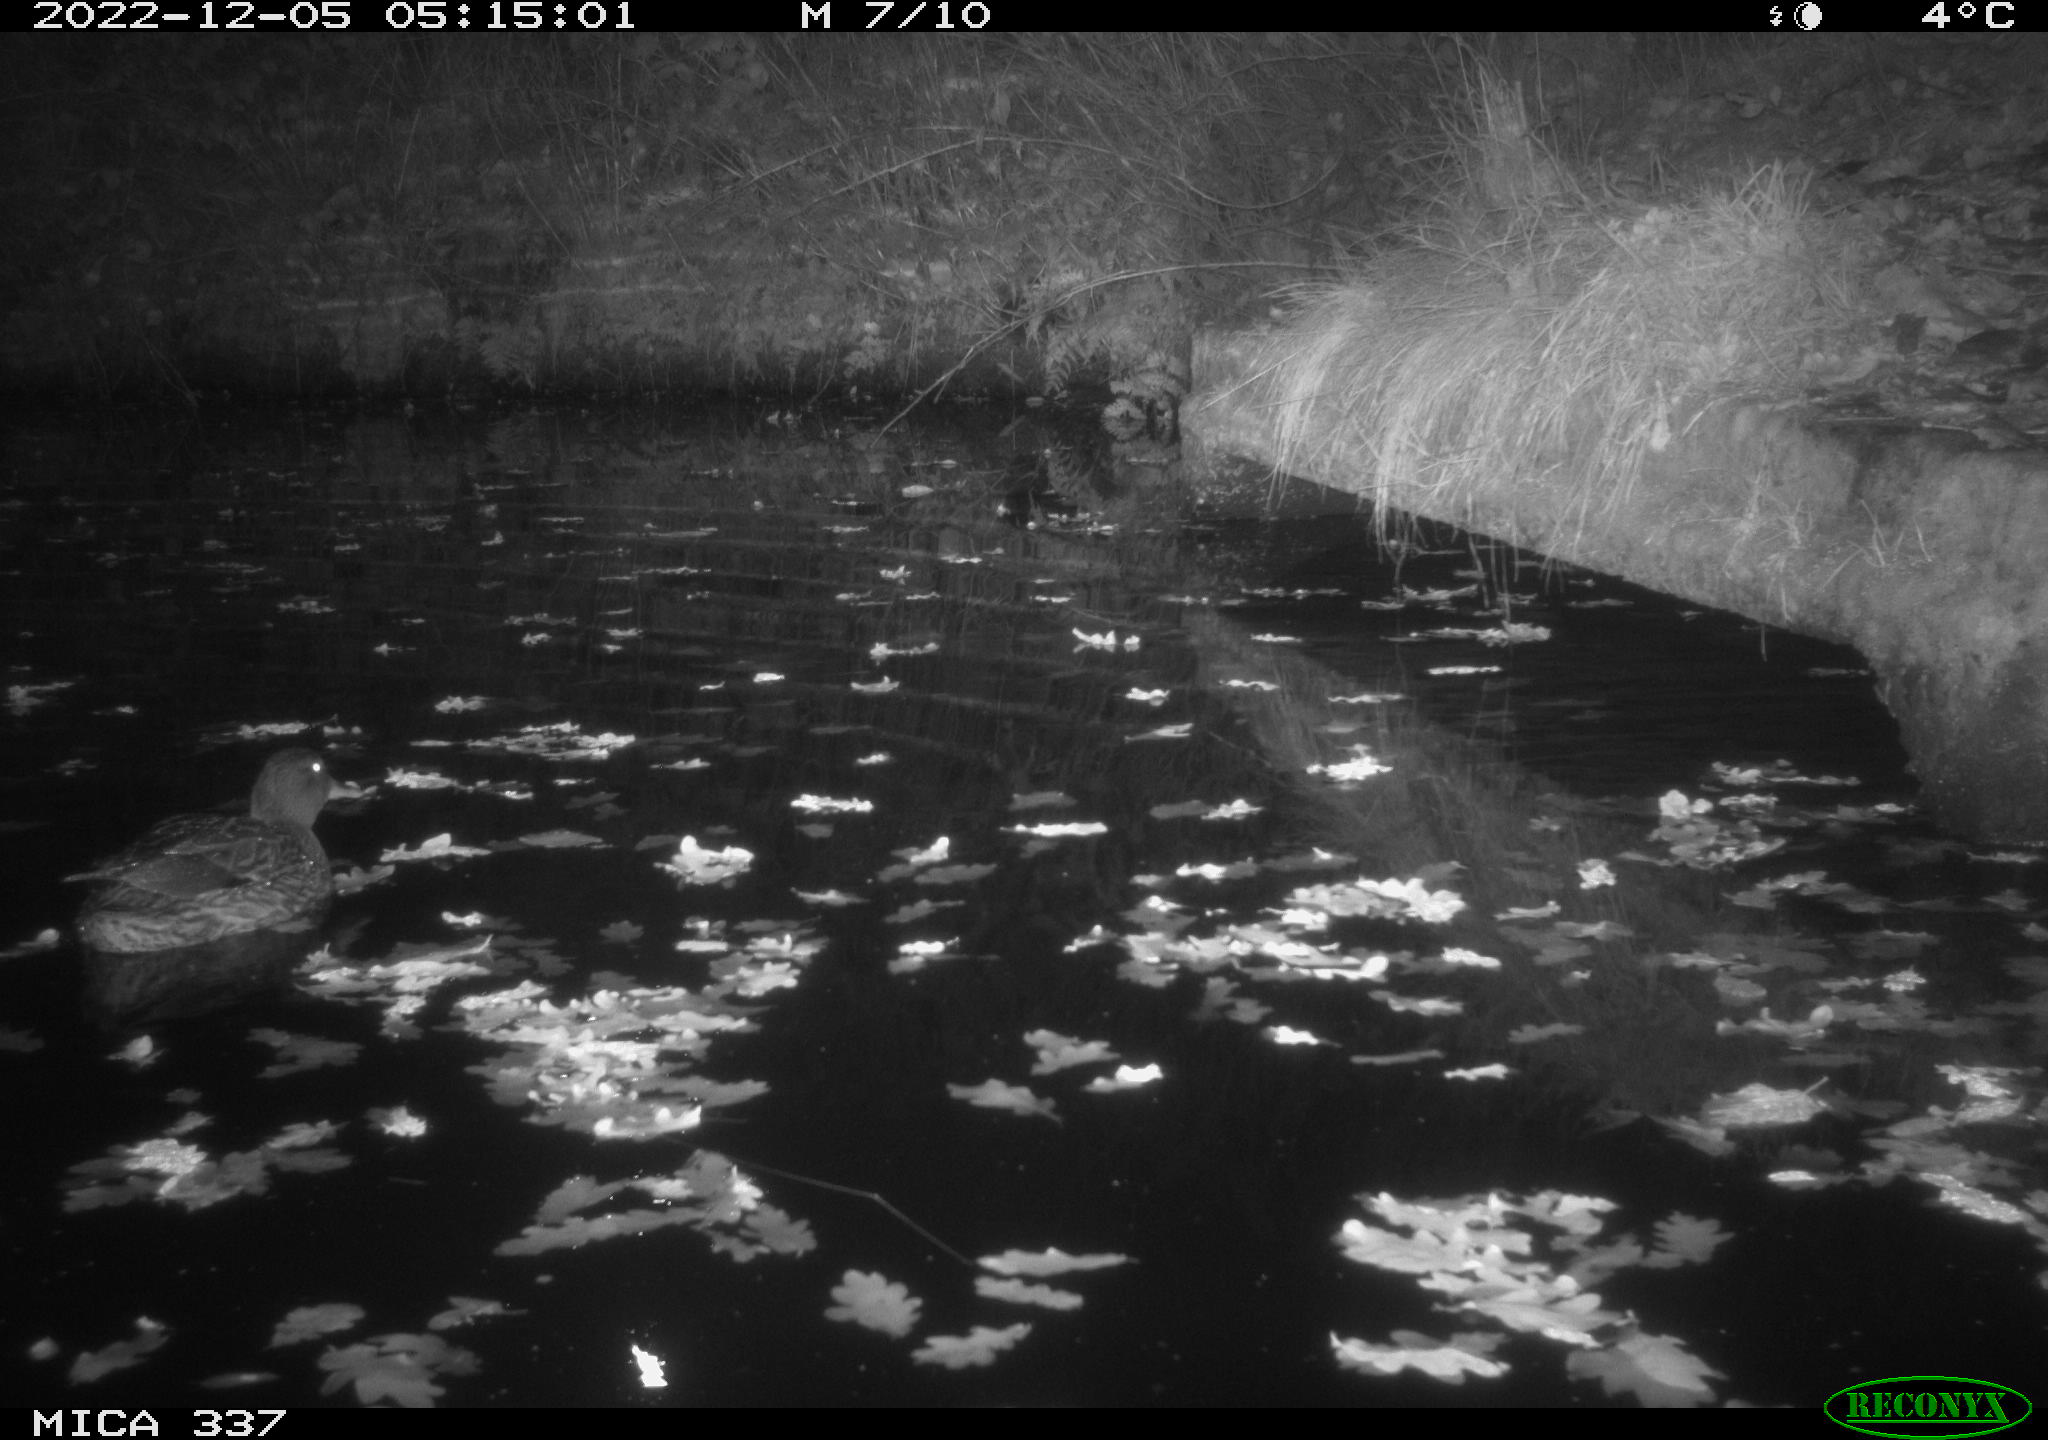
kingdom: Animalia
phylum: Chordata
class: Aves
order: Anseriformes
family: Anatidae
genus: Anas
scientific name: Anas platyrhynchos
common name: Mallard
